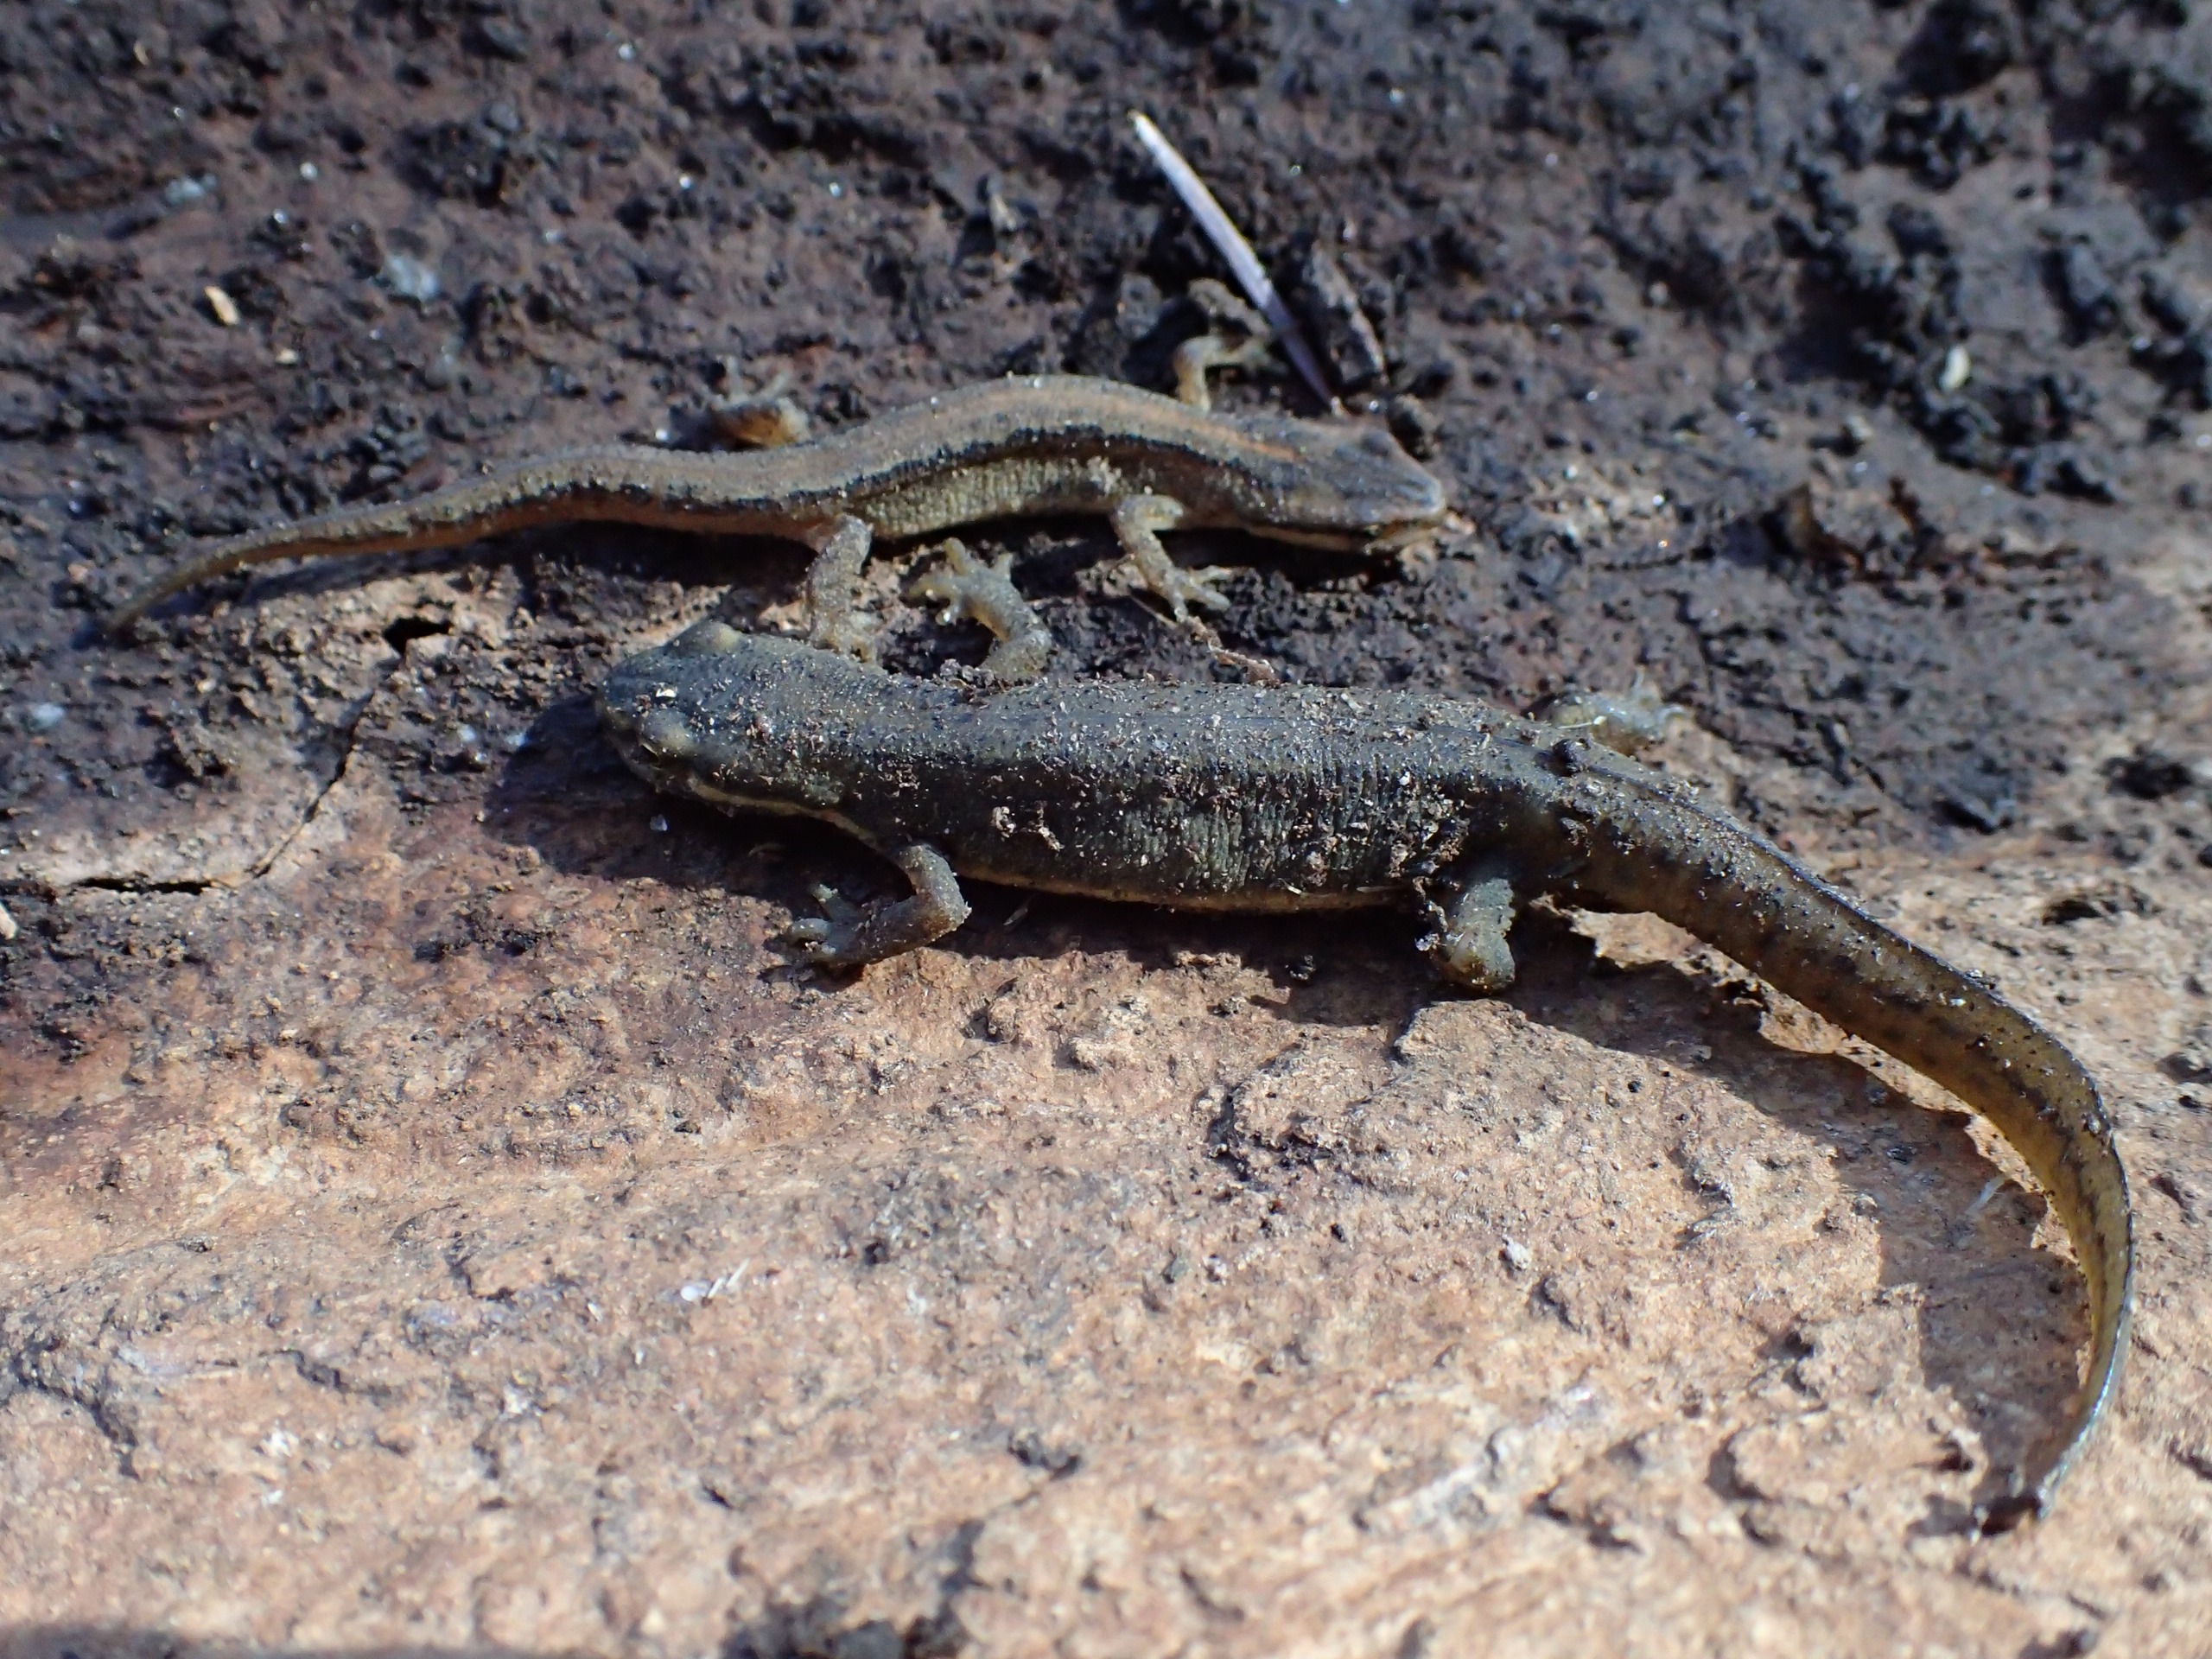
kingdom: Animalia
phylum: Chordata
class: Amphibia
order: Caudata
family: Salamandridae
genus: Lissotriton
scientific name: Lissotriton vulgaris
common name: Lille vandsalamander
